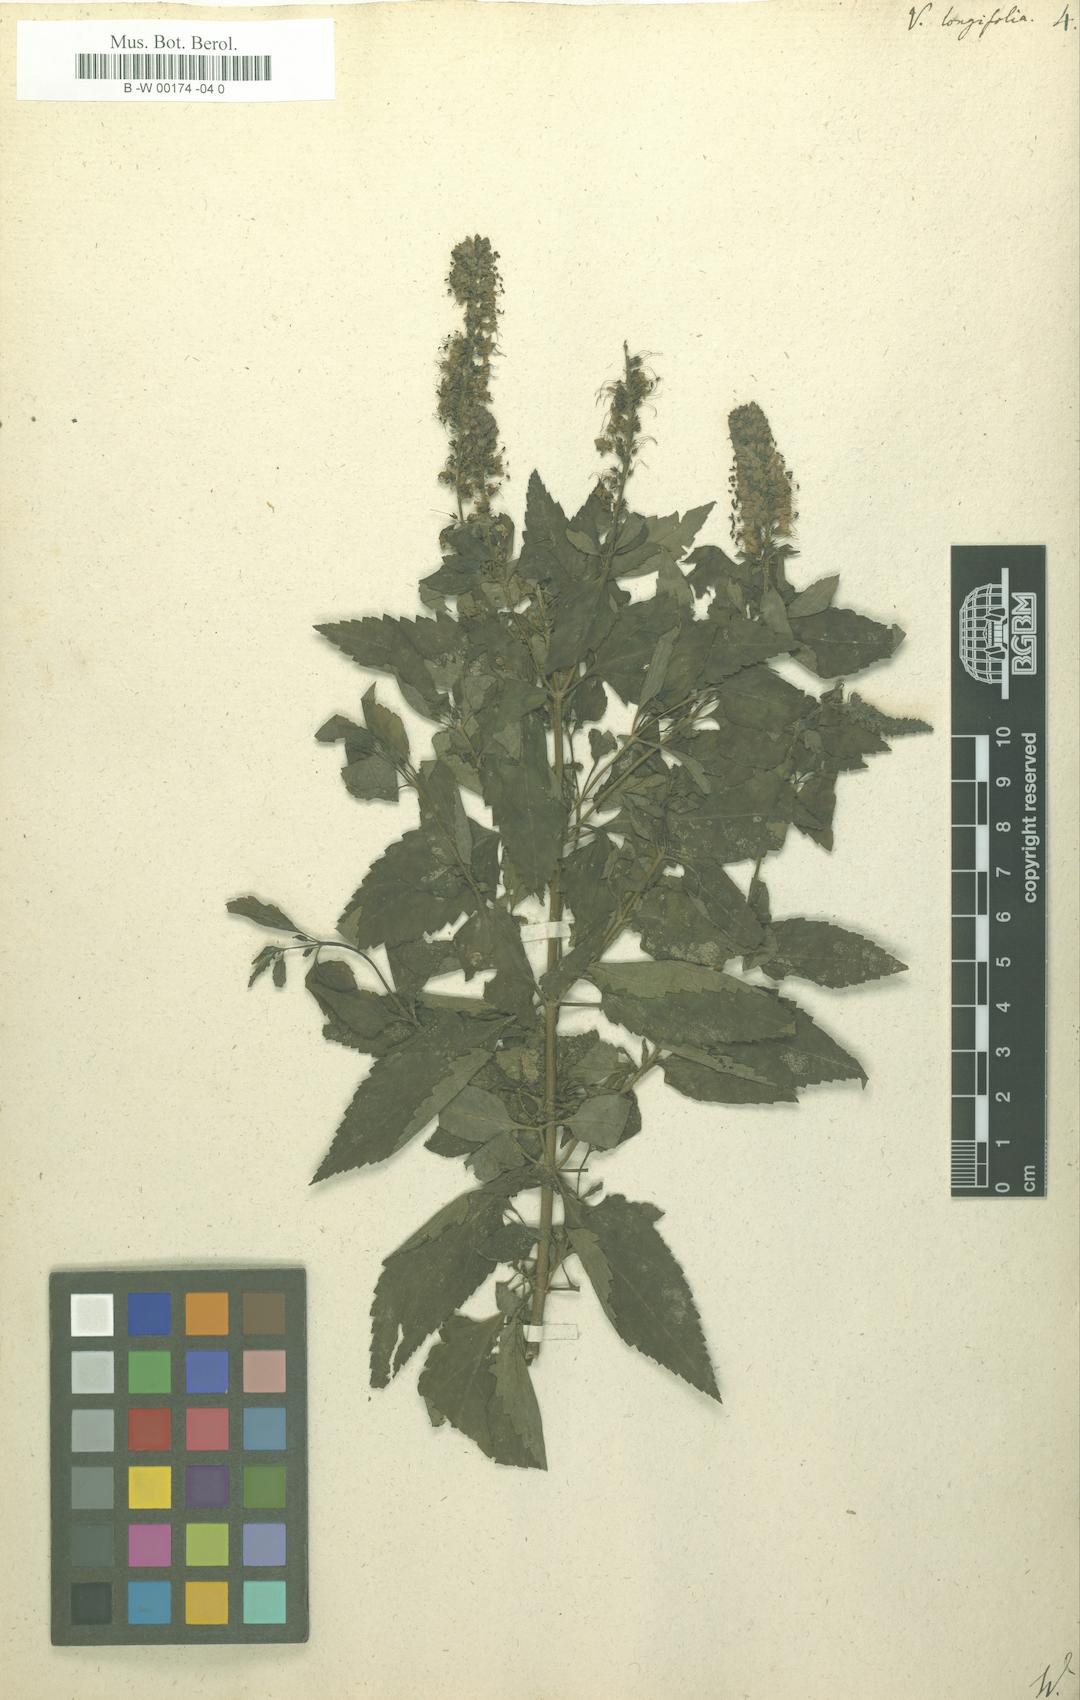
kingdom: Plantae
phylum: Tracheophyta
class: Magnoliopsida
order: Lamiales
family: Plantaginaceae
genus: Veronica
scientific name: Veronica longifolia
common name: Garden speedwell
